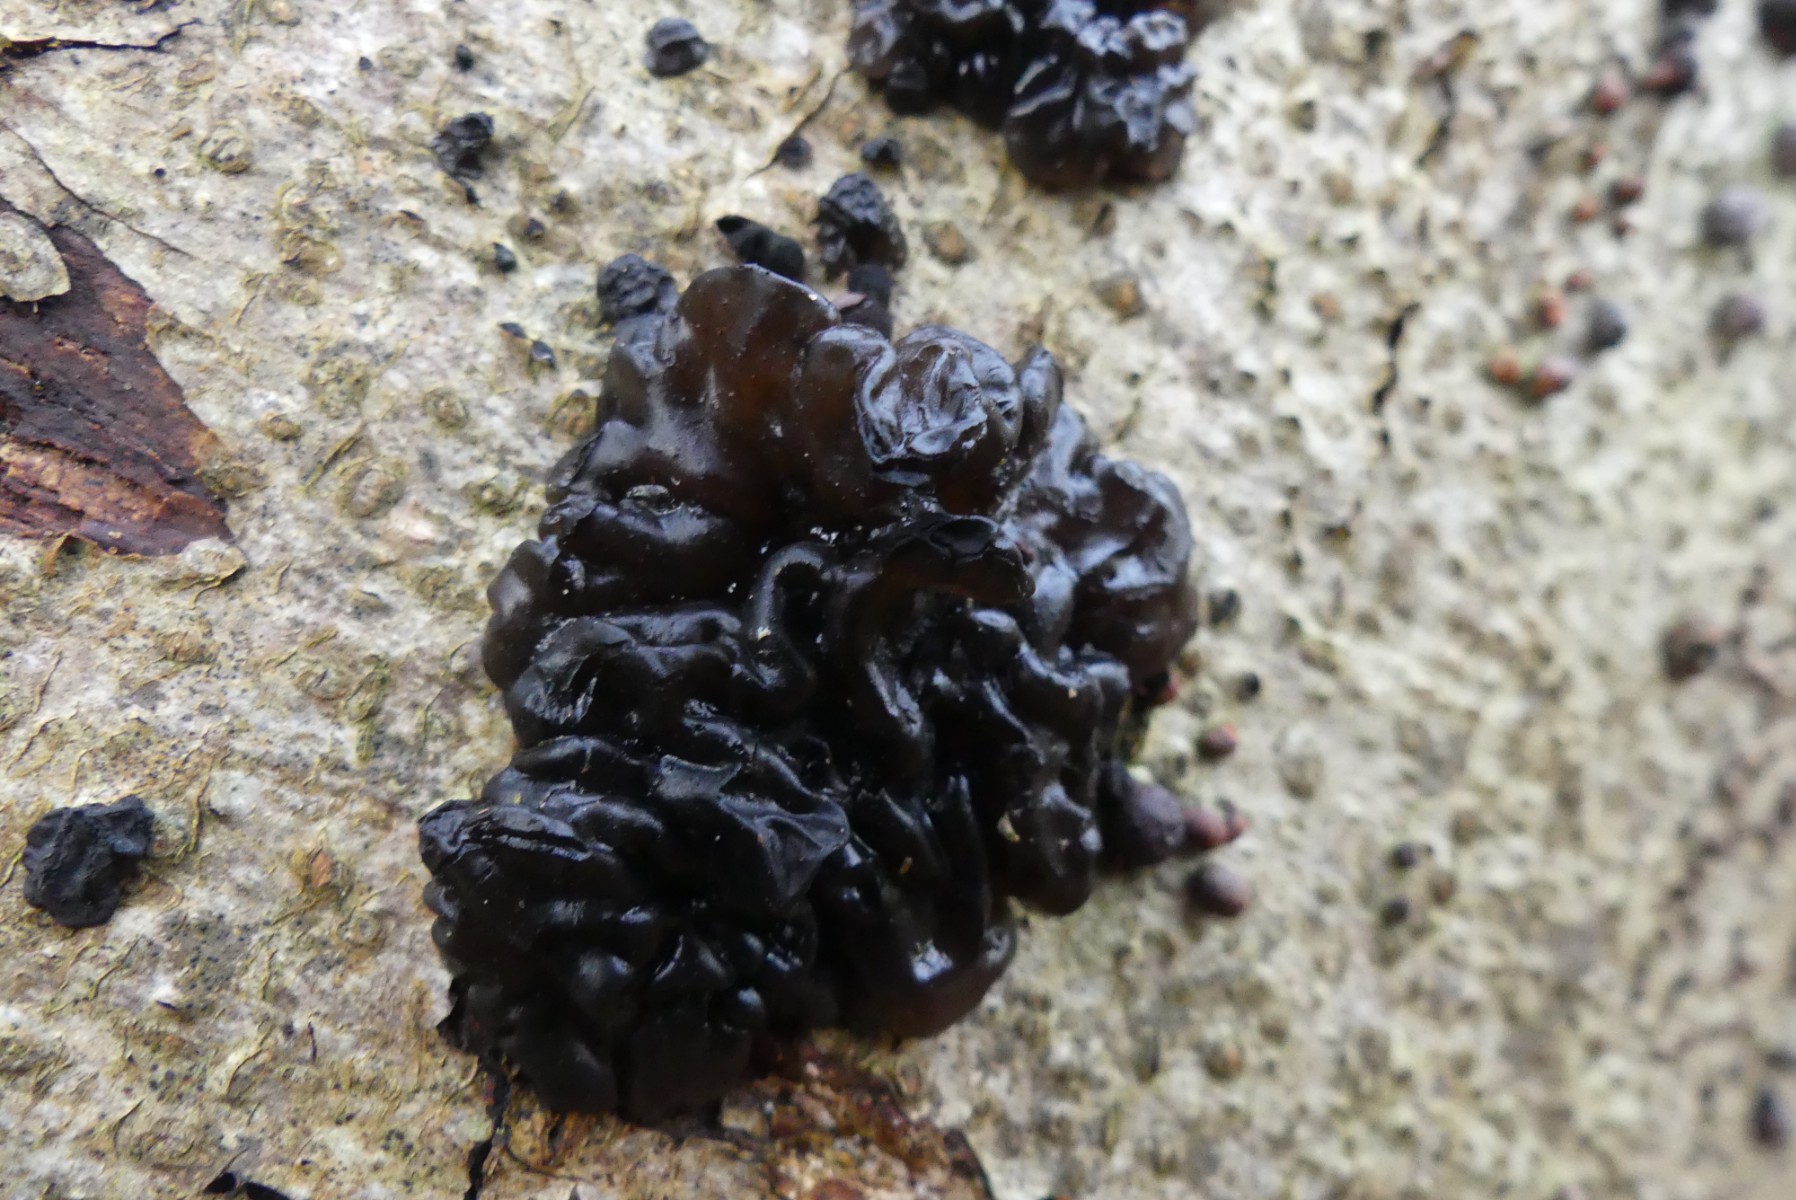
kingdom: Fungi
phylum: Basidiomycota
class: Agaricomycetes
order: Auriculariales
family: Auriculariaceae
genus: Exidia
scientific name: Exidia nigricans
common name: almindelig bævretop
